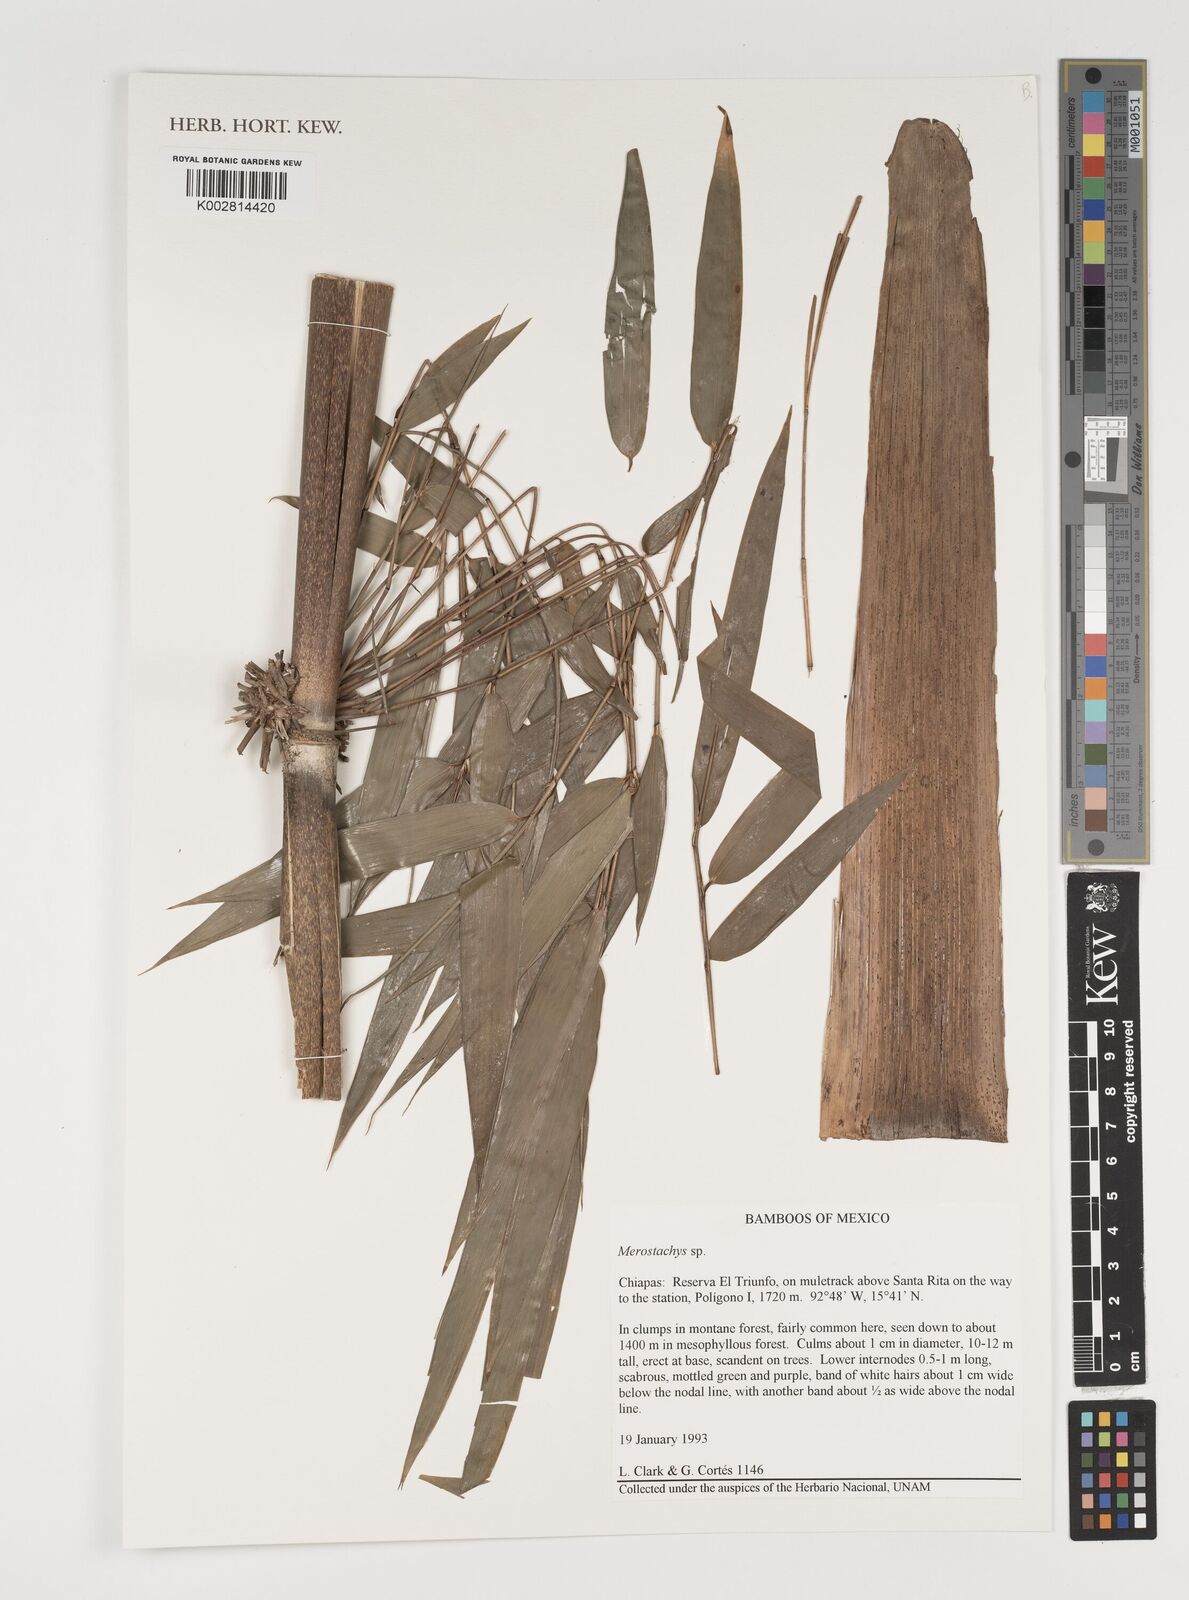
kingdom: Plantae
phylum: Tracheophyta
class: Liliopsida
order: Poales
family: Poaceae
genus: Merostachys
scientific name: Merostachys
